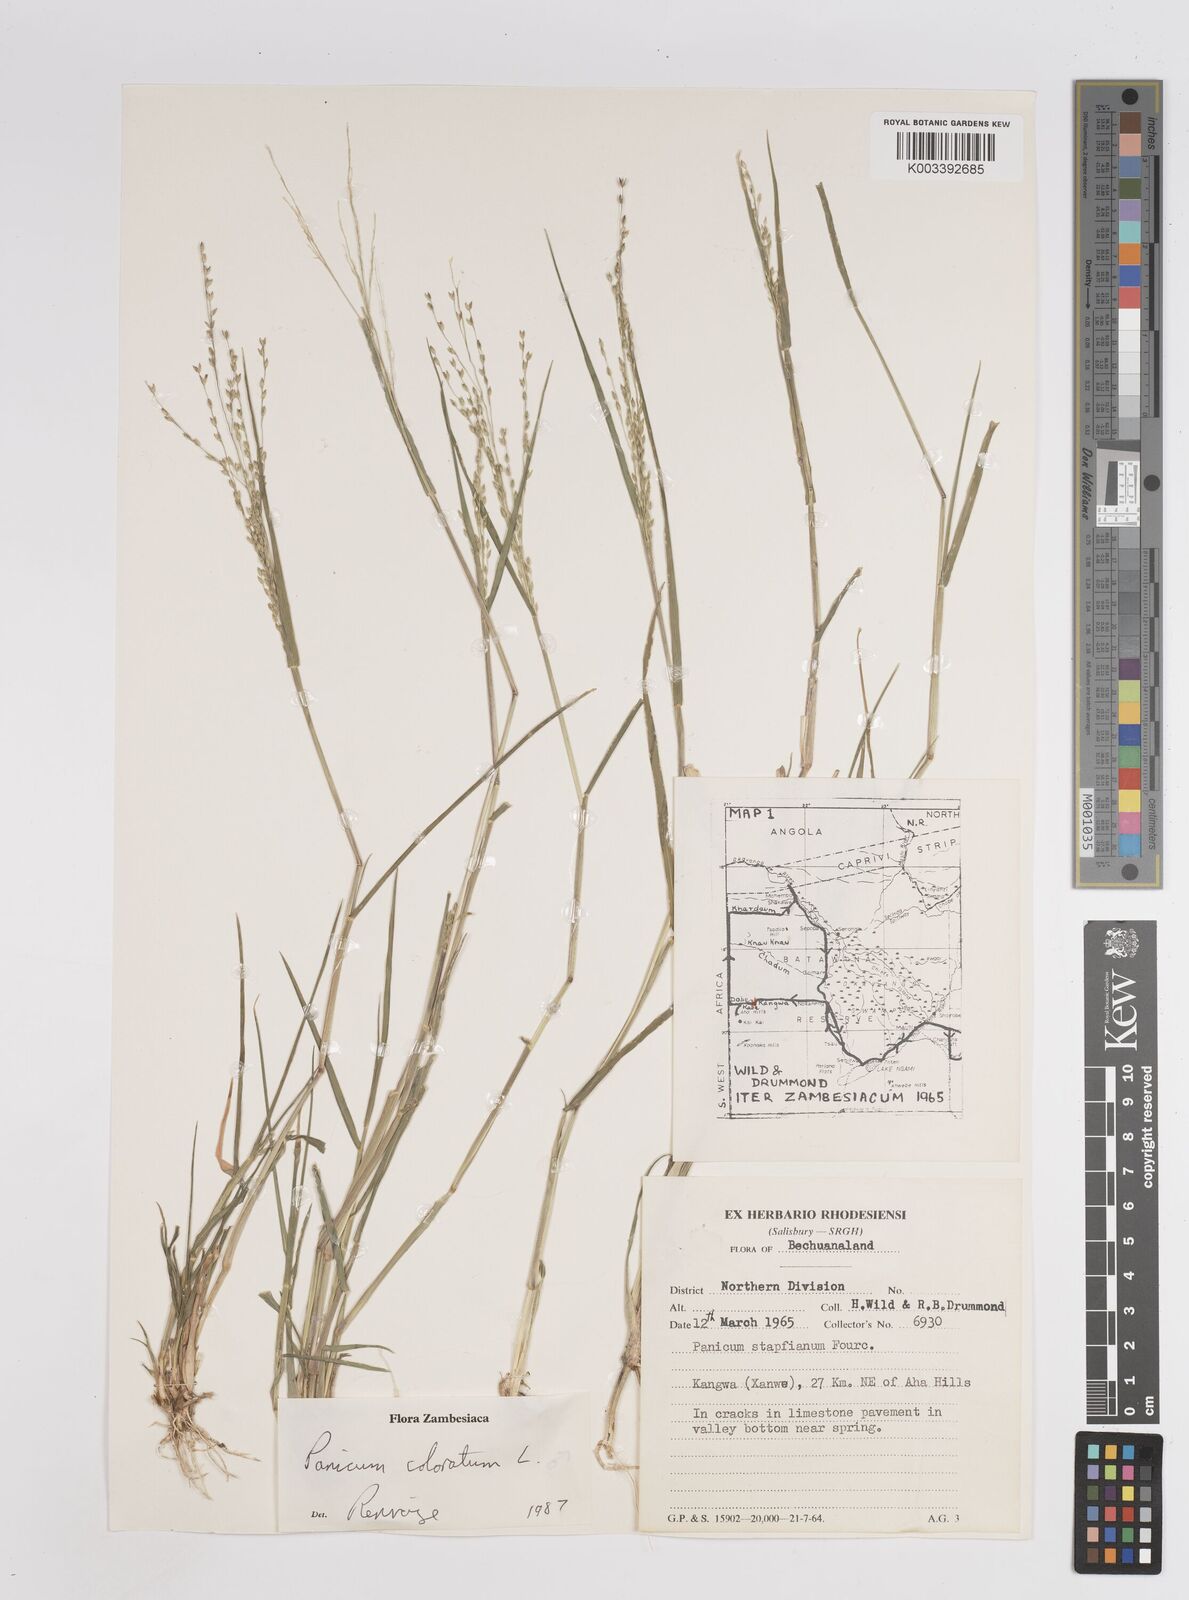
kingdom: Plantae
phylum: Tracheophyta
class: Liliopsida
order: Poales
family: Poaceae
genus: Panicum
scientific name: Panicum coloratum
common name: Kleingrass
